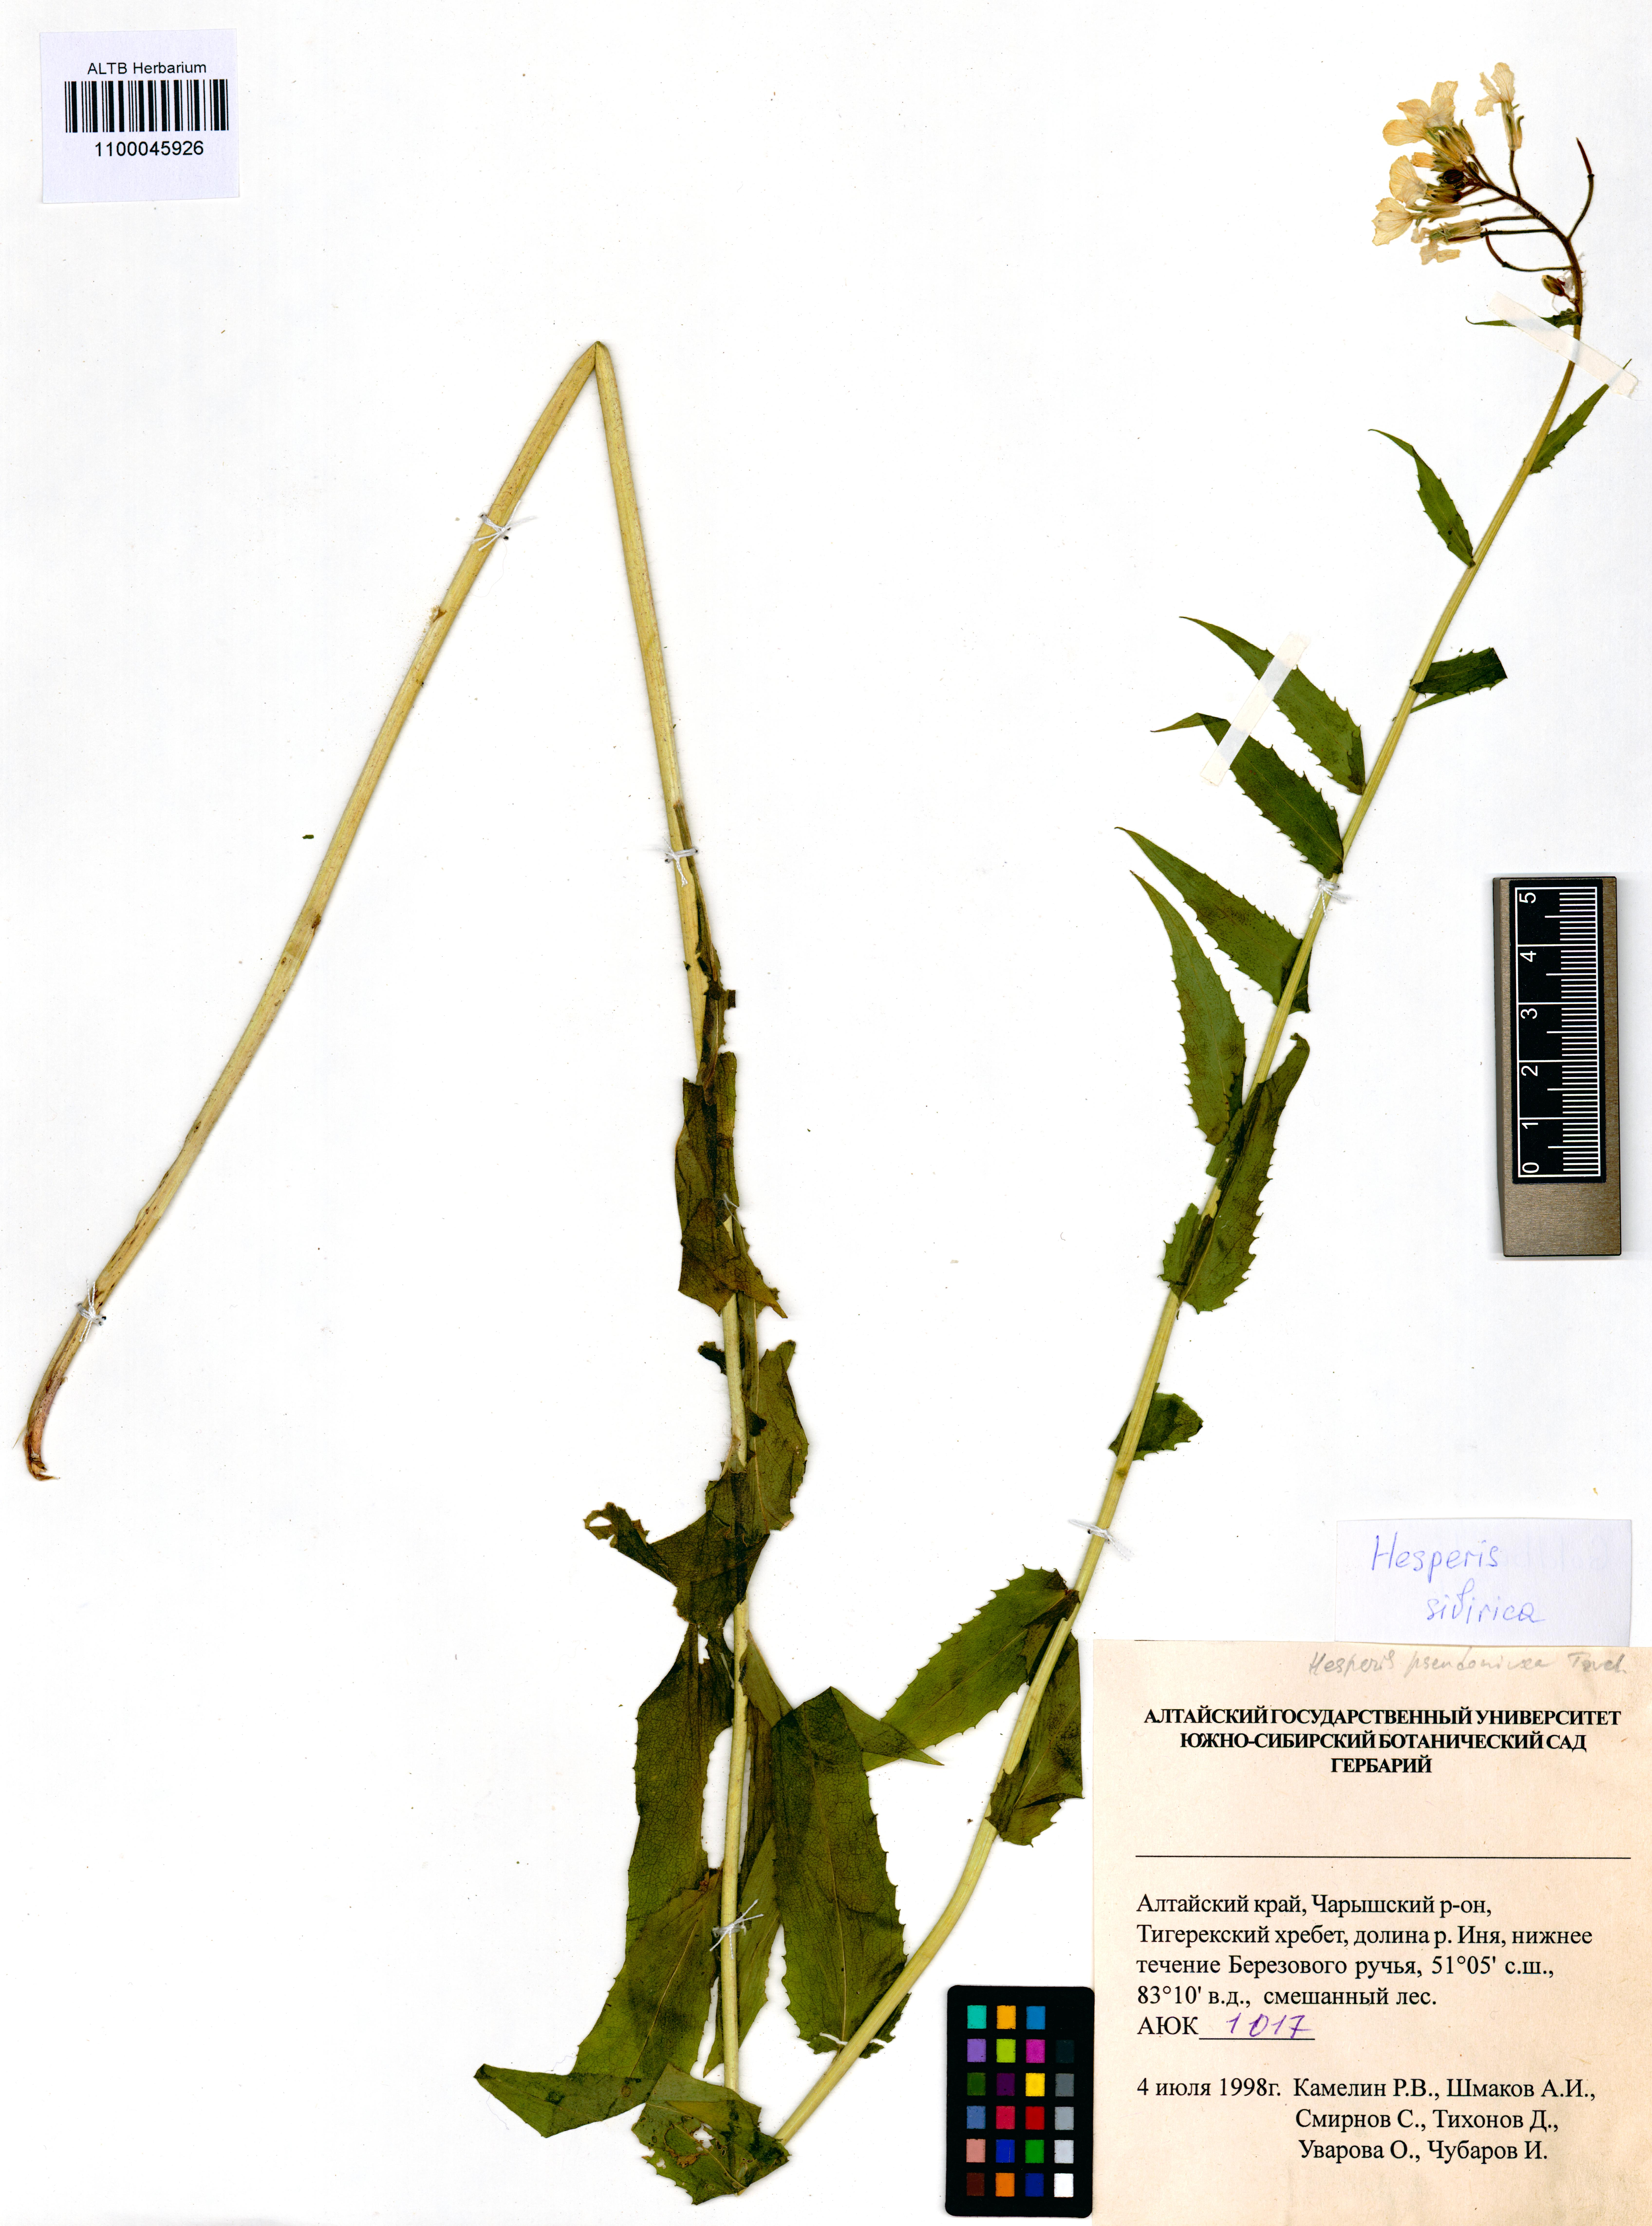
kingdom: Plantae
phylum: Tracheophyta
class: Magnoliopsida
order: Brassicales
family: Brassicaceae
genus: Hesperis
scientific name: Hesperis sibirica
